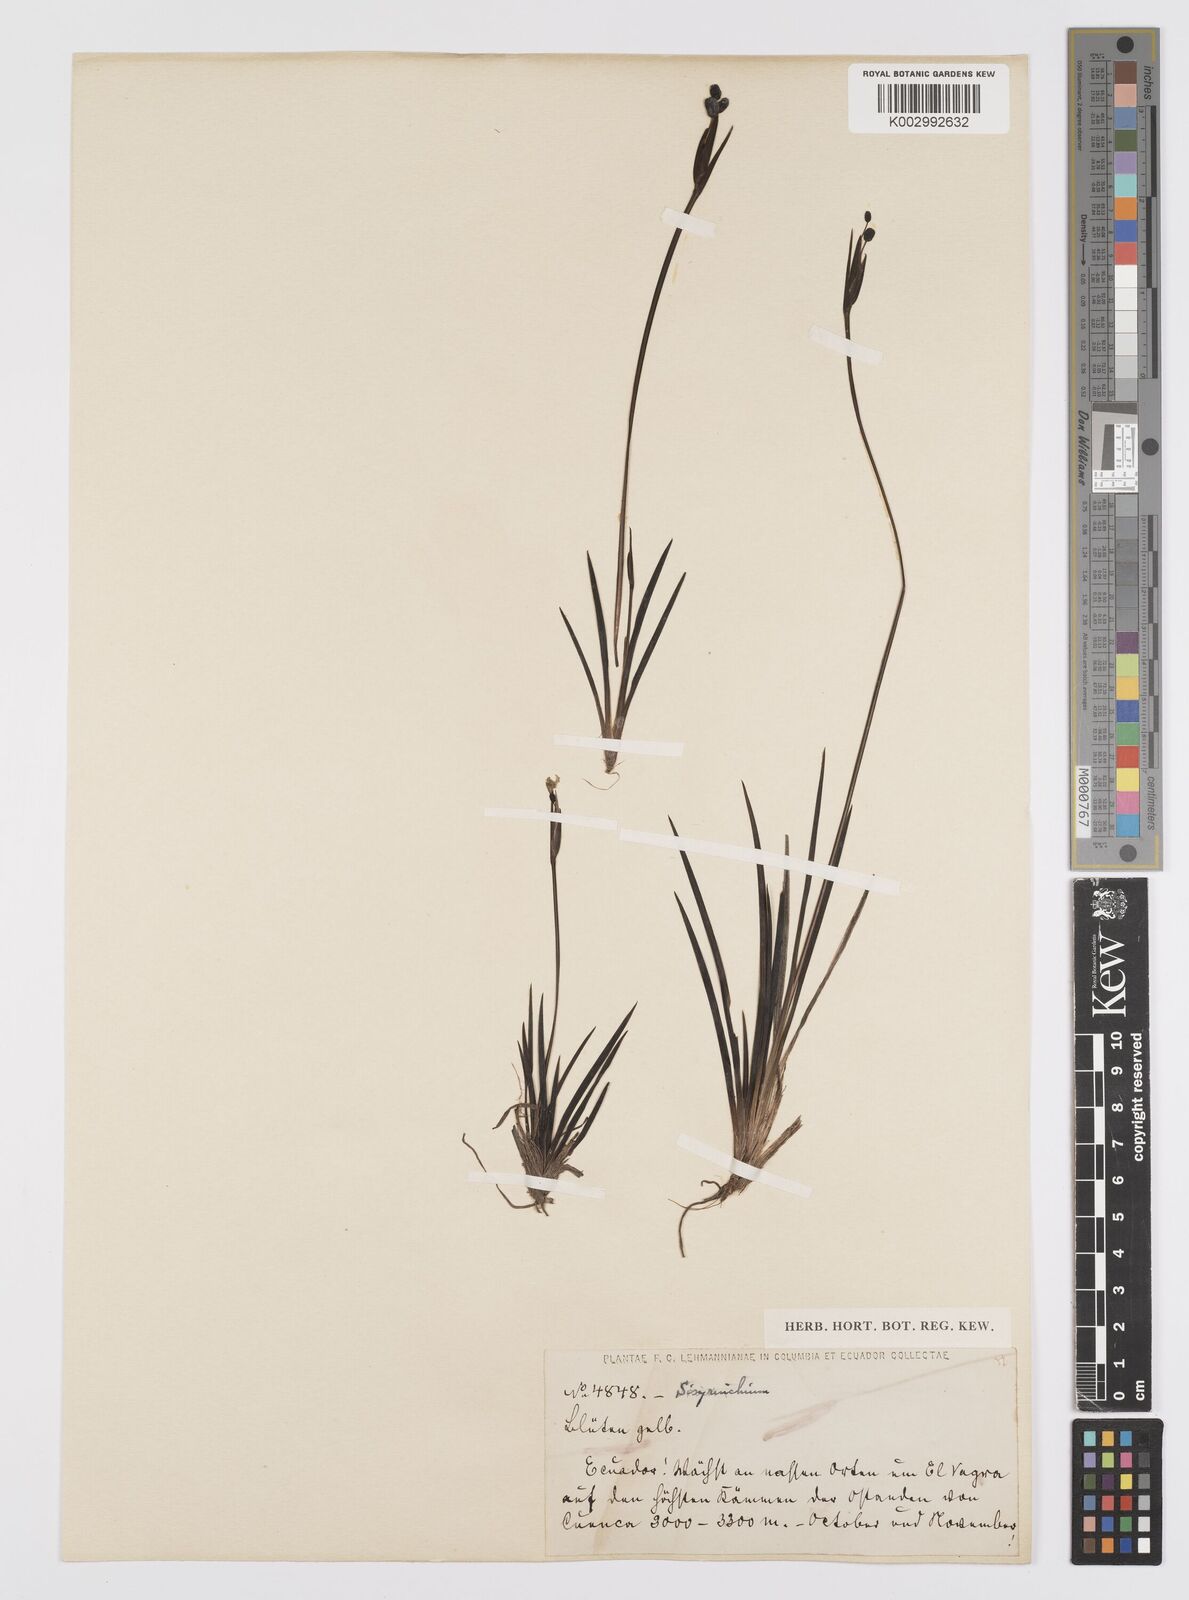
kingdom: Plantae
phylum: Tracheophyta
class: Liliopsida
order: Asparagales
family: Iridaceae
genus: Sisyrinchium
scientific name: Sisyrinchium
